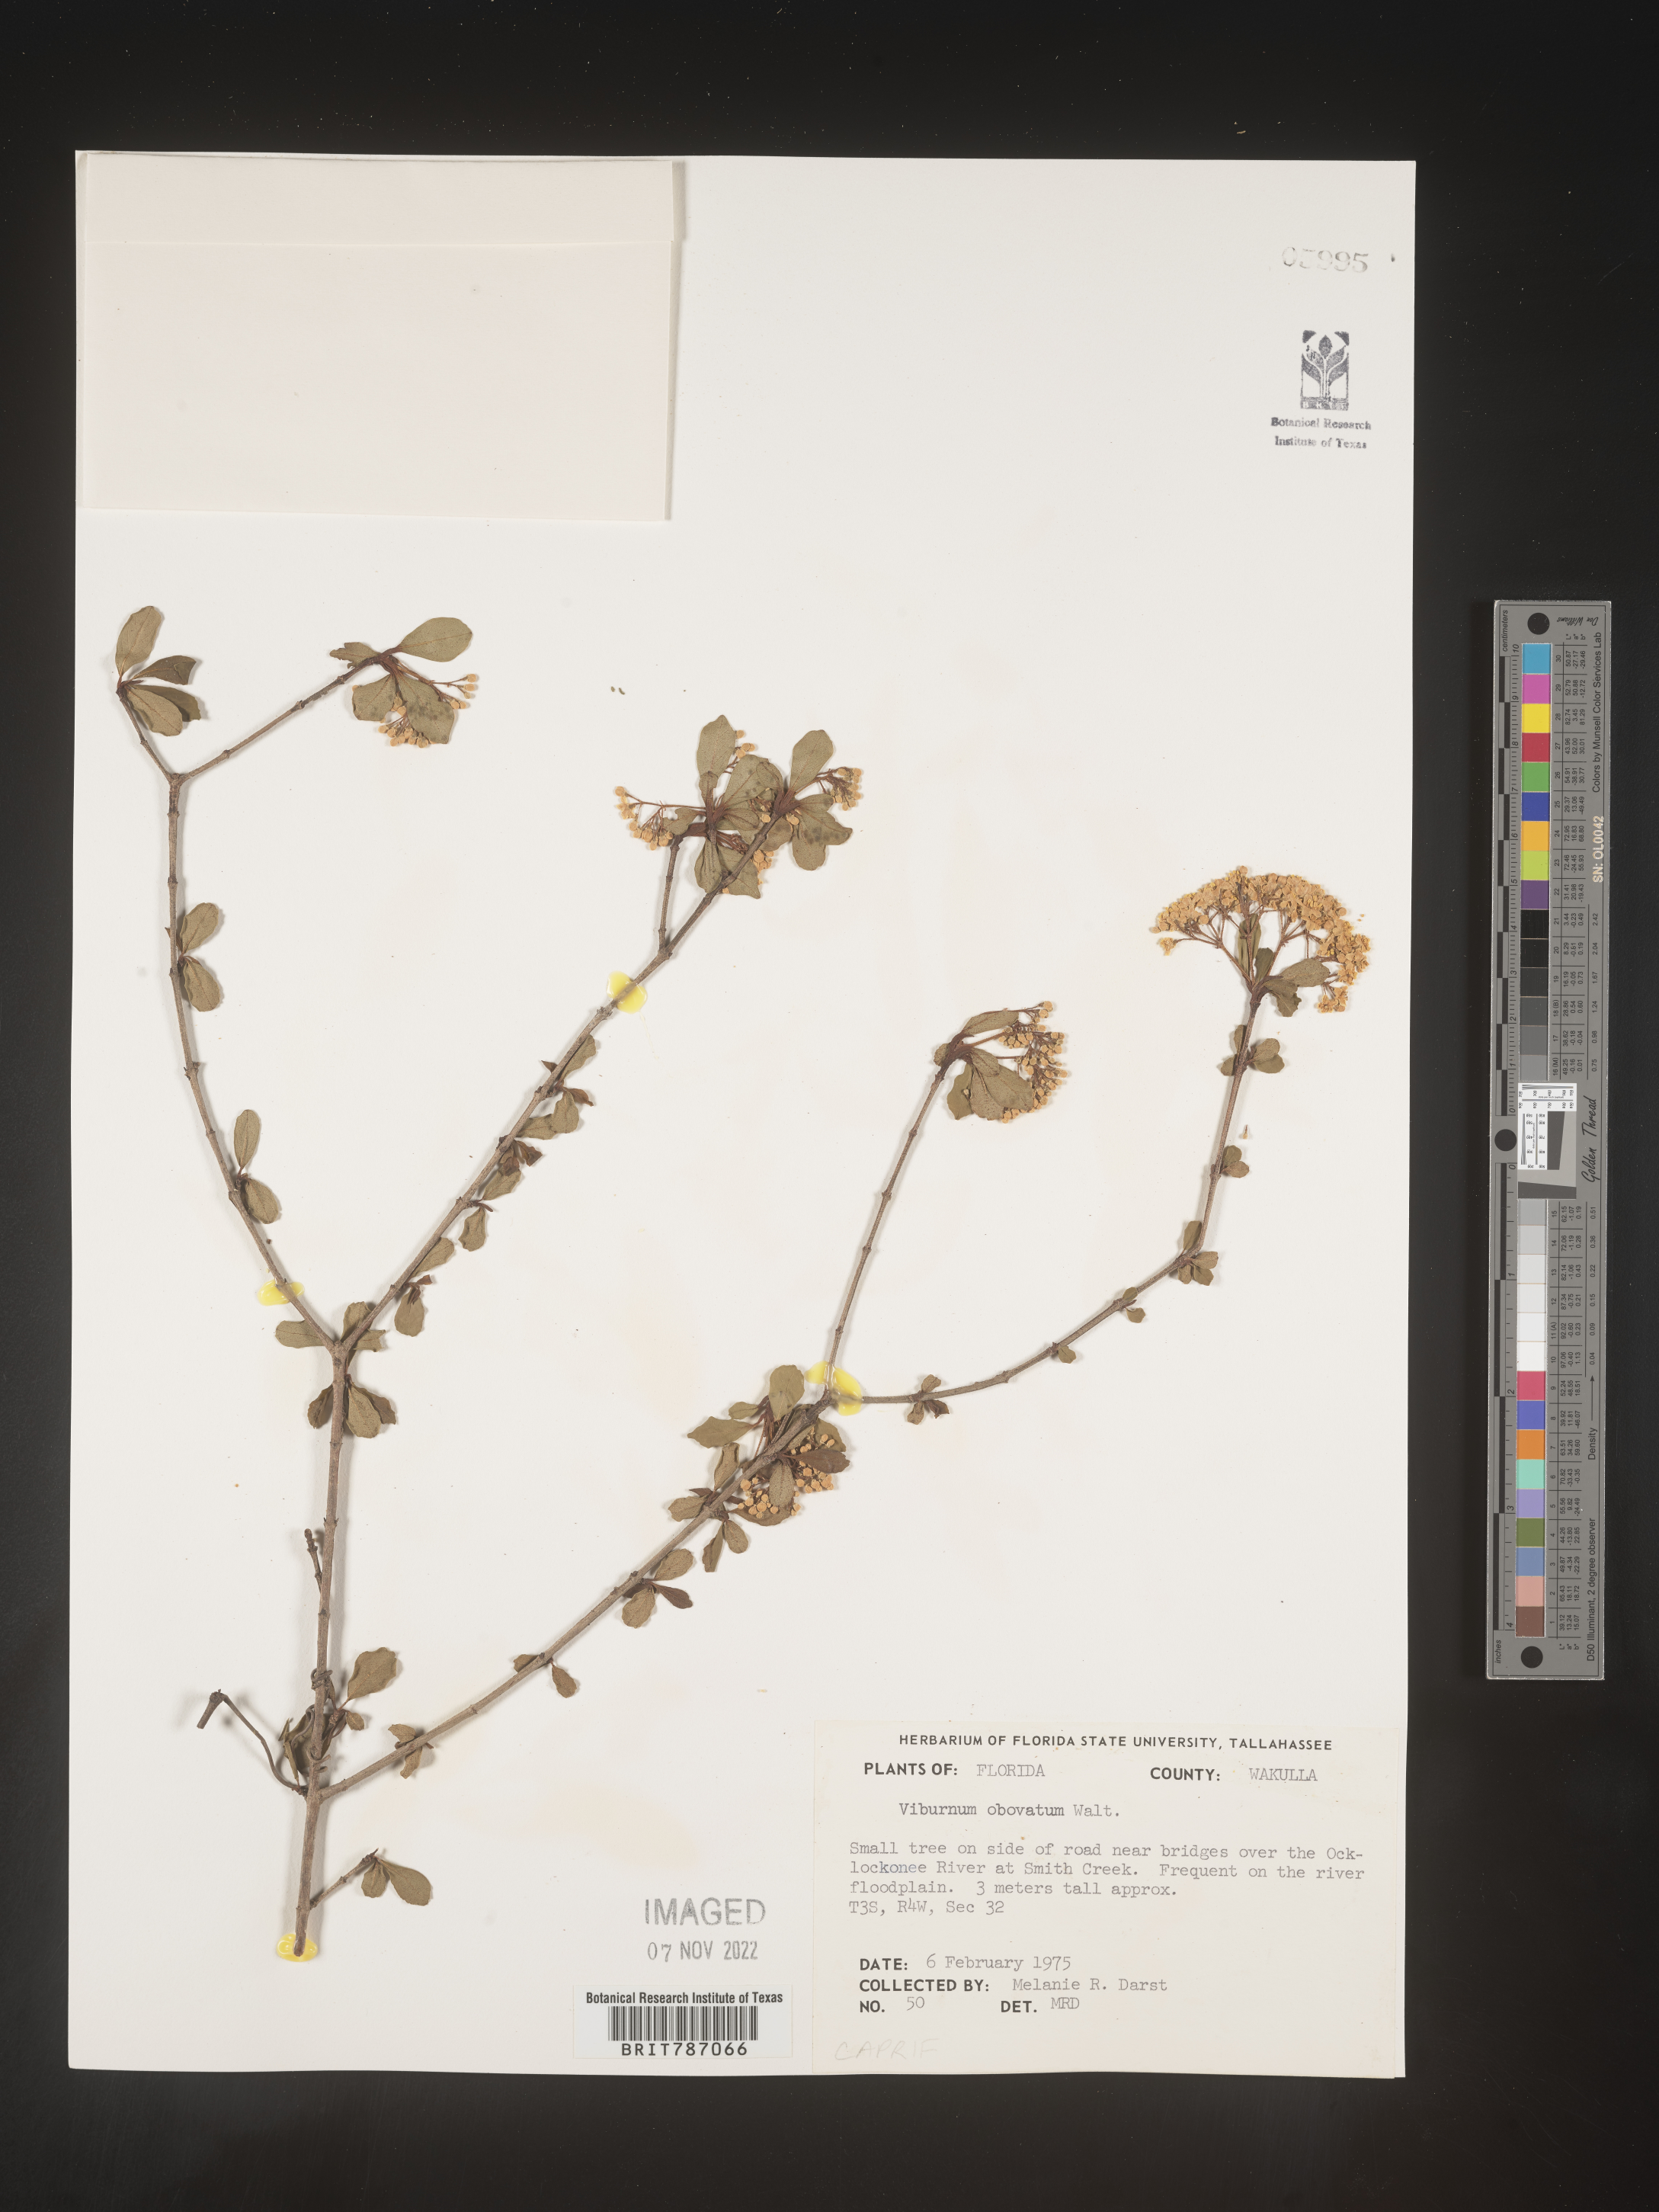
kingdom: Plantae
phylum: Tracheophyta
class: Magnoliopsida
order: Dipsacales
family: Viburnaceae
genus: Viburnum
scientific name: Viburnum obovatum
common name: Walter's viburnum
